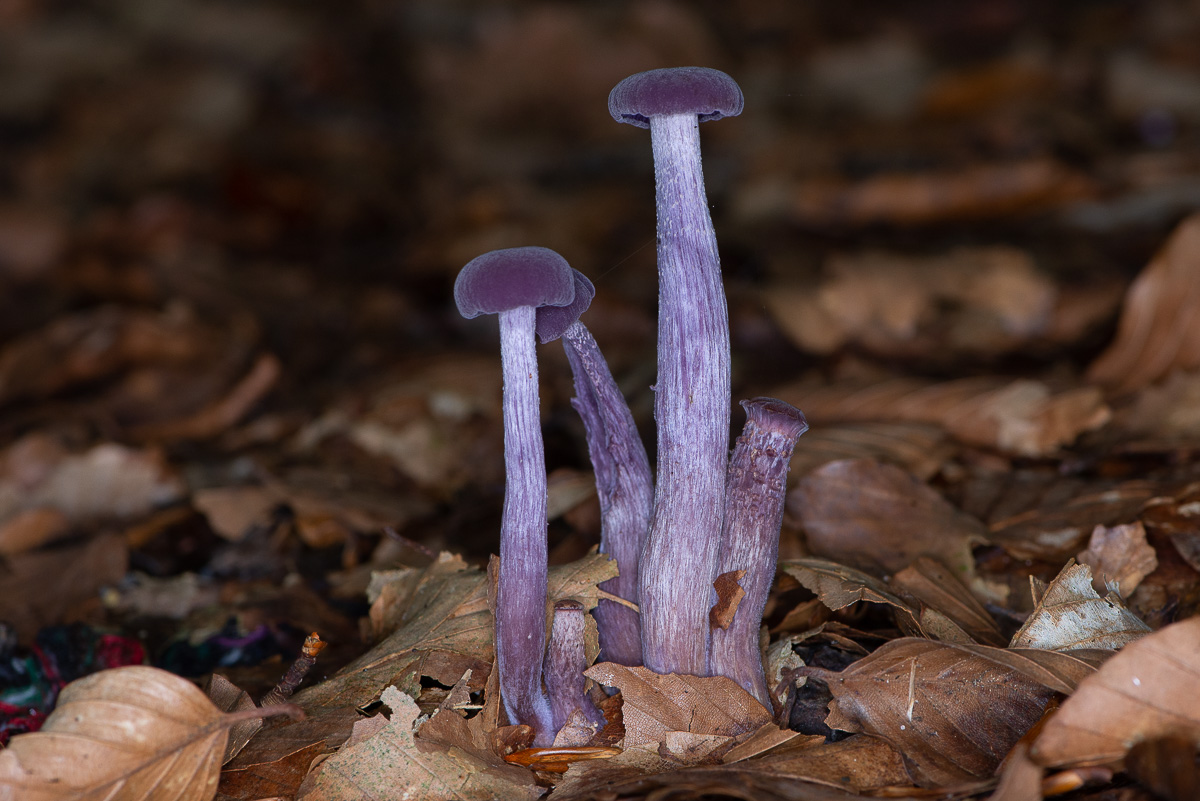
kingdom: Fungi
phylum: Basidiomycota
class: Agaricomycetes
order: Agaricales
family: Hydnangiaceae
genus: Laccaria
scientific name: Laccaria amethystina
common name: violet ametysthat
